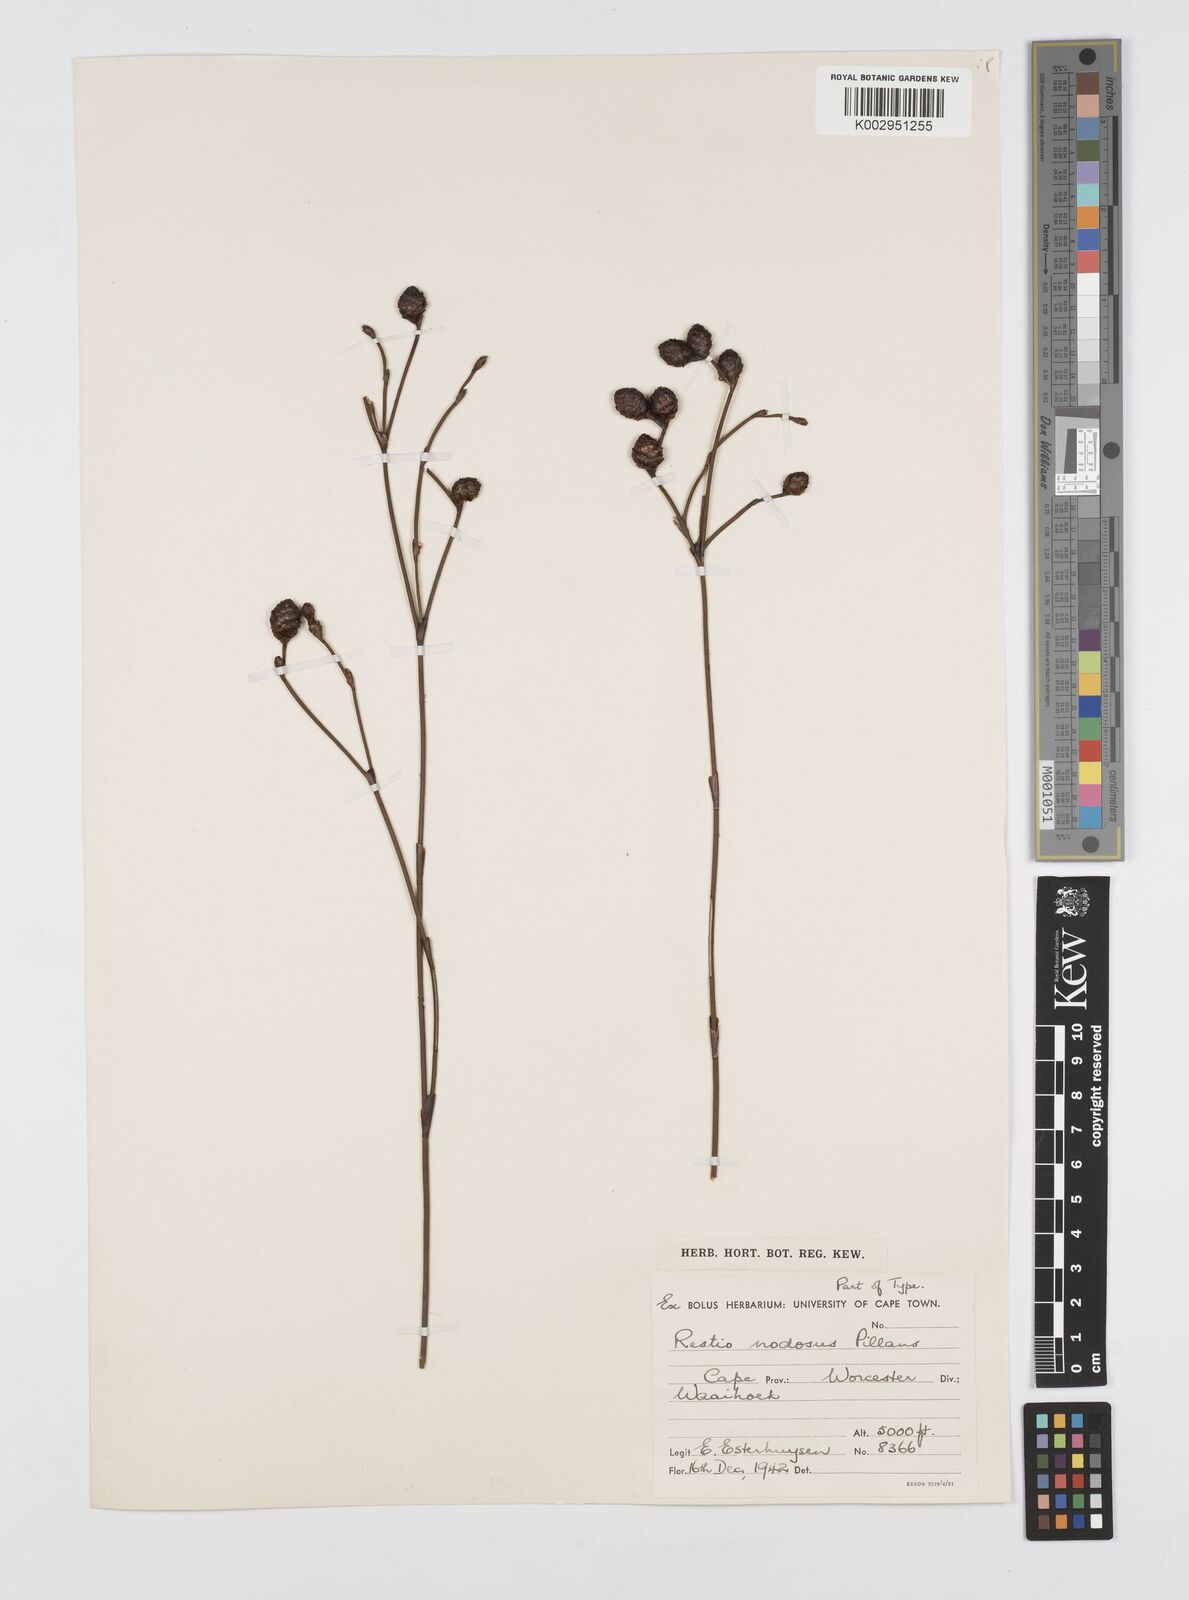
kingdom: Plantae
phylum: Tracheophyta
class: Liliopsida
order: Poales
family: Restionaceae
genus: Restio
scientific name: Restio nodosus
